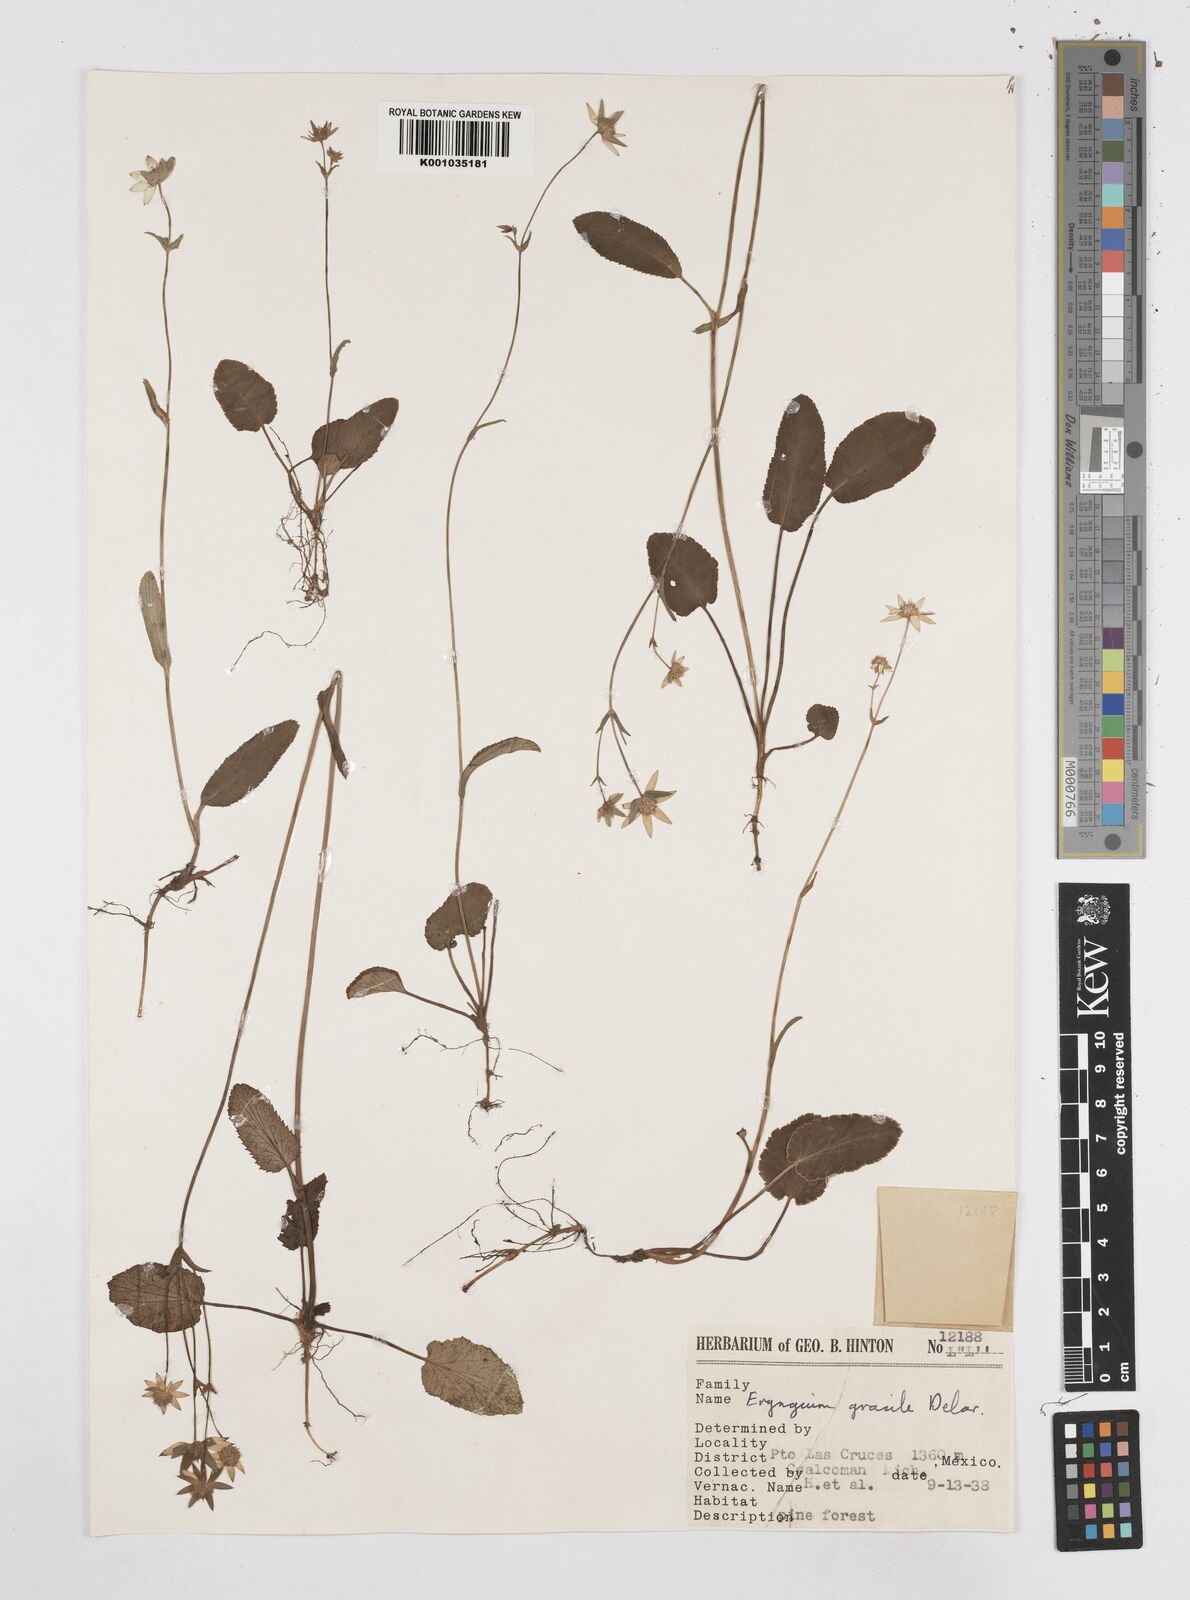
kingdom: Plantae
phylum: Tracheophyta
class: Magnoliopsida
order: Apiales
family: Apiaceae
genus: Eryngium
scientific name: Eryngium gracile
